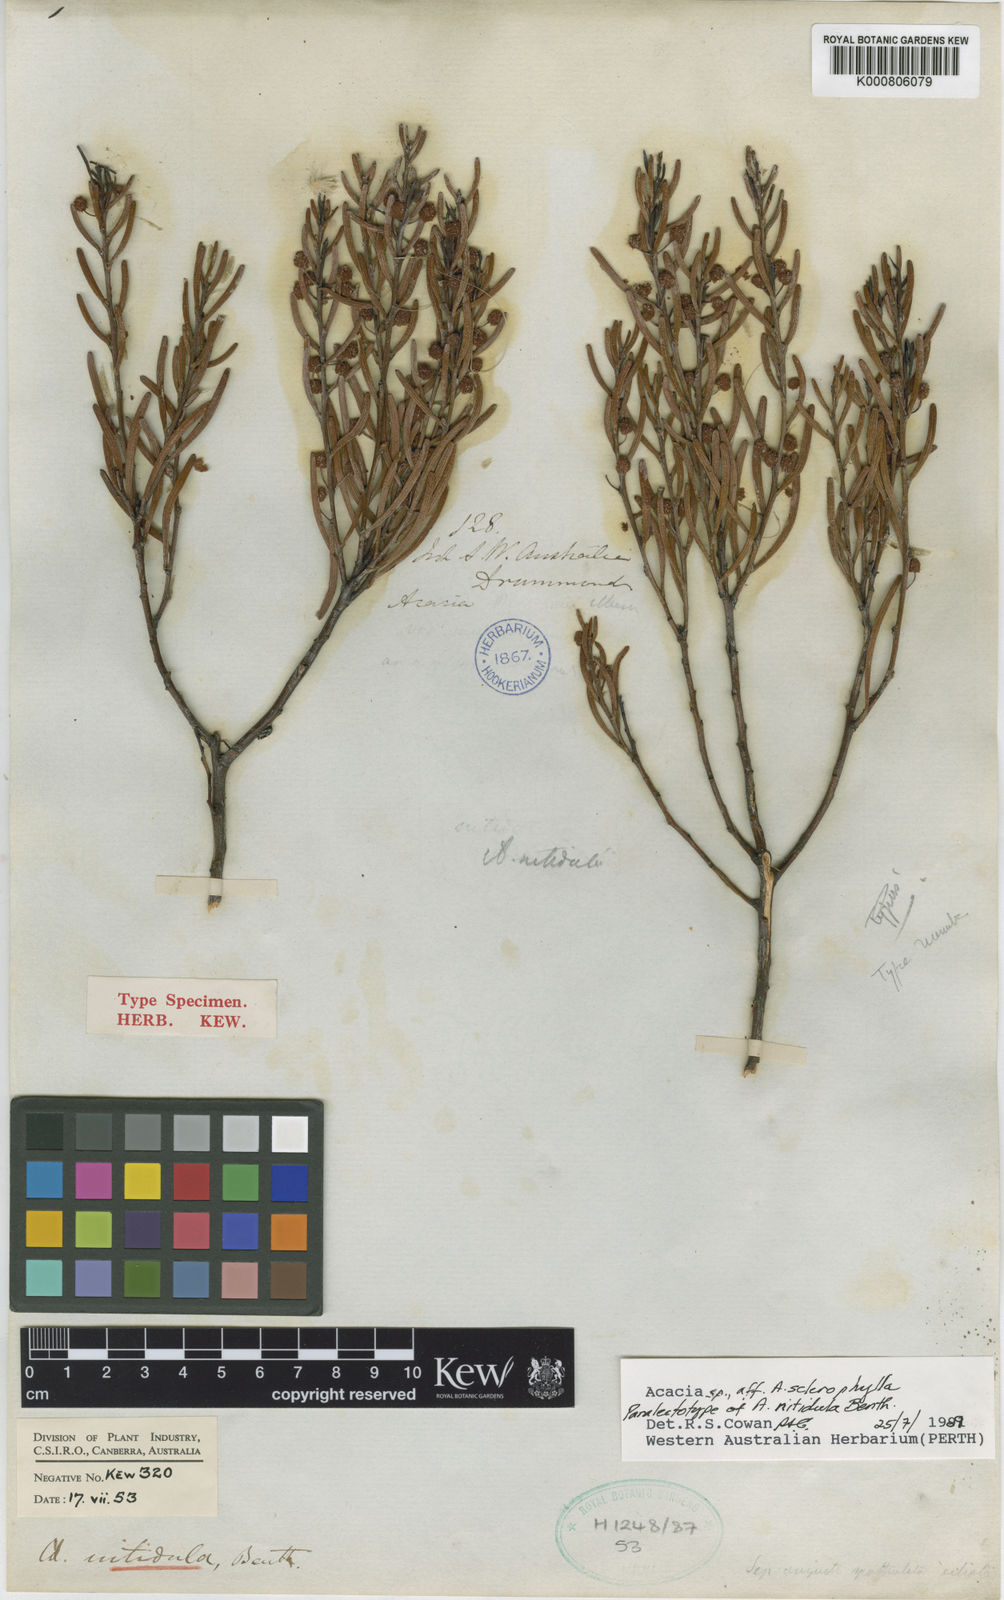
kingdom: Plantae
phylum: Tracheophyta
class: Magnoliopsida
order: Fabales
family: Fabaceae
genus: Acacia
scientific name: Acacia nitidula
